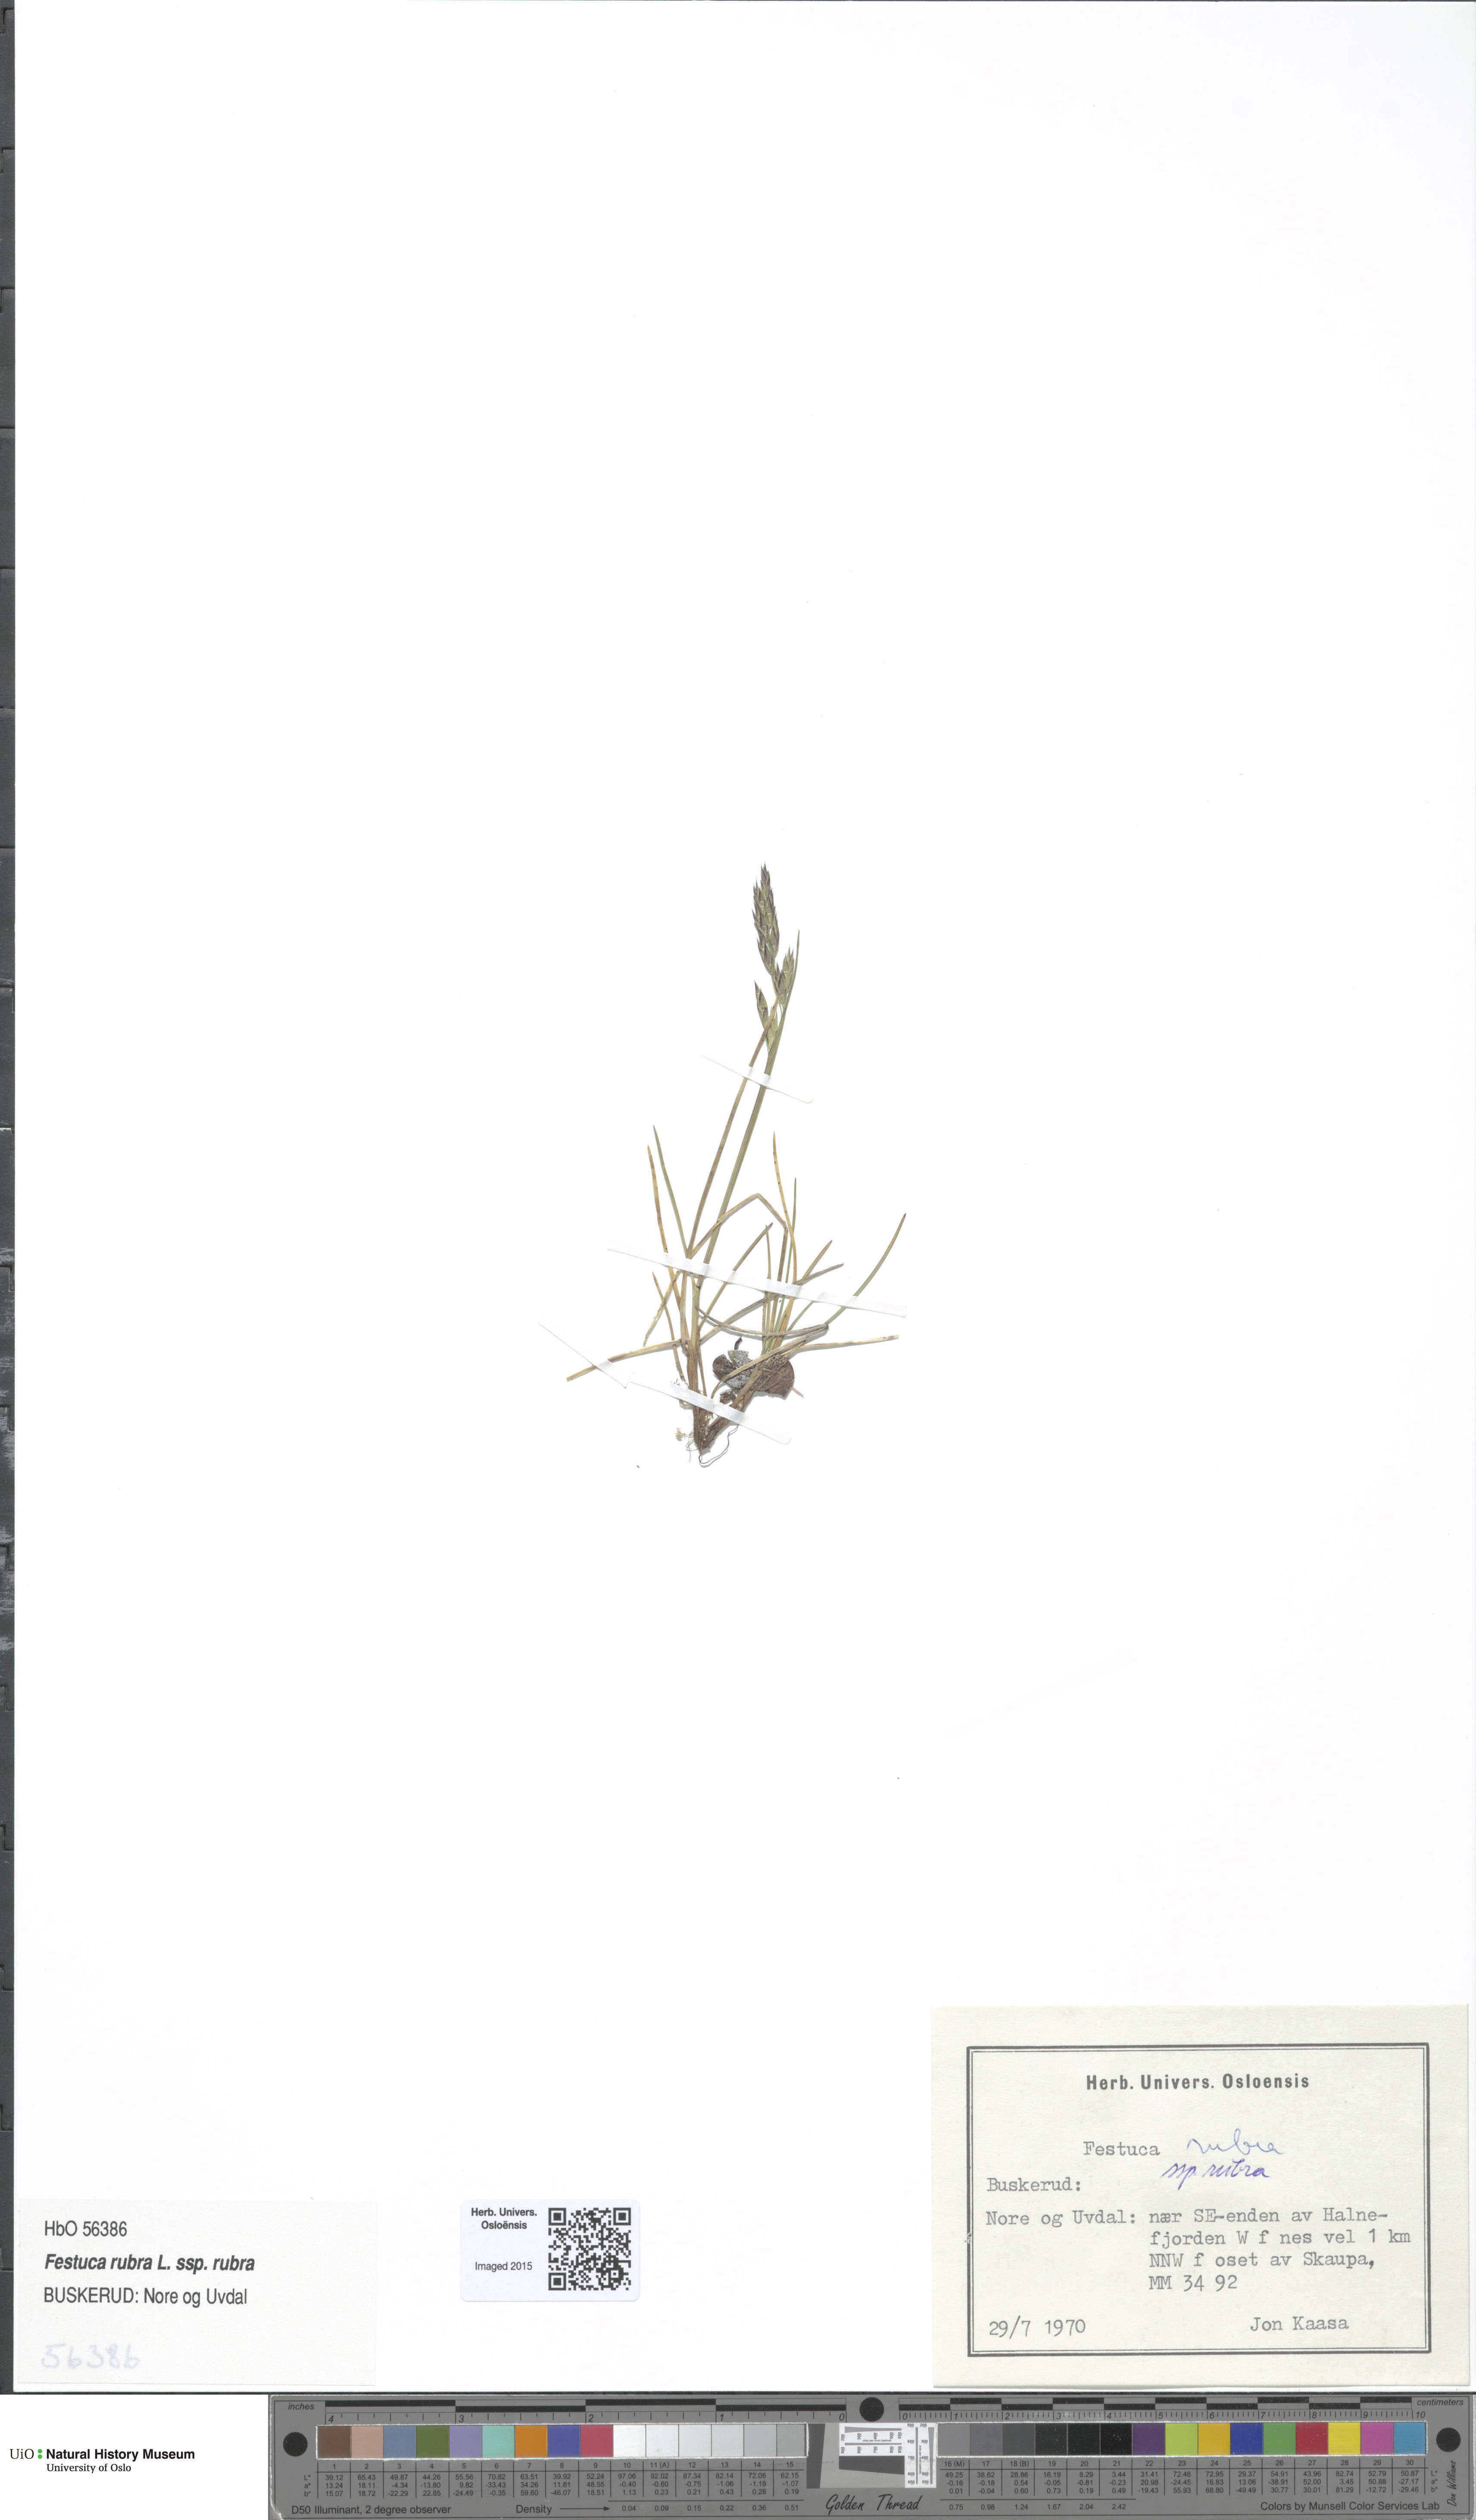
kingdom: Plantae
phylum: Tracheophyta
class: Liliopsida
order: Poales
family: Poaceae
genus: Festuca
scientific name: Festuca rubra
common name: Red fescue
